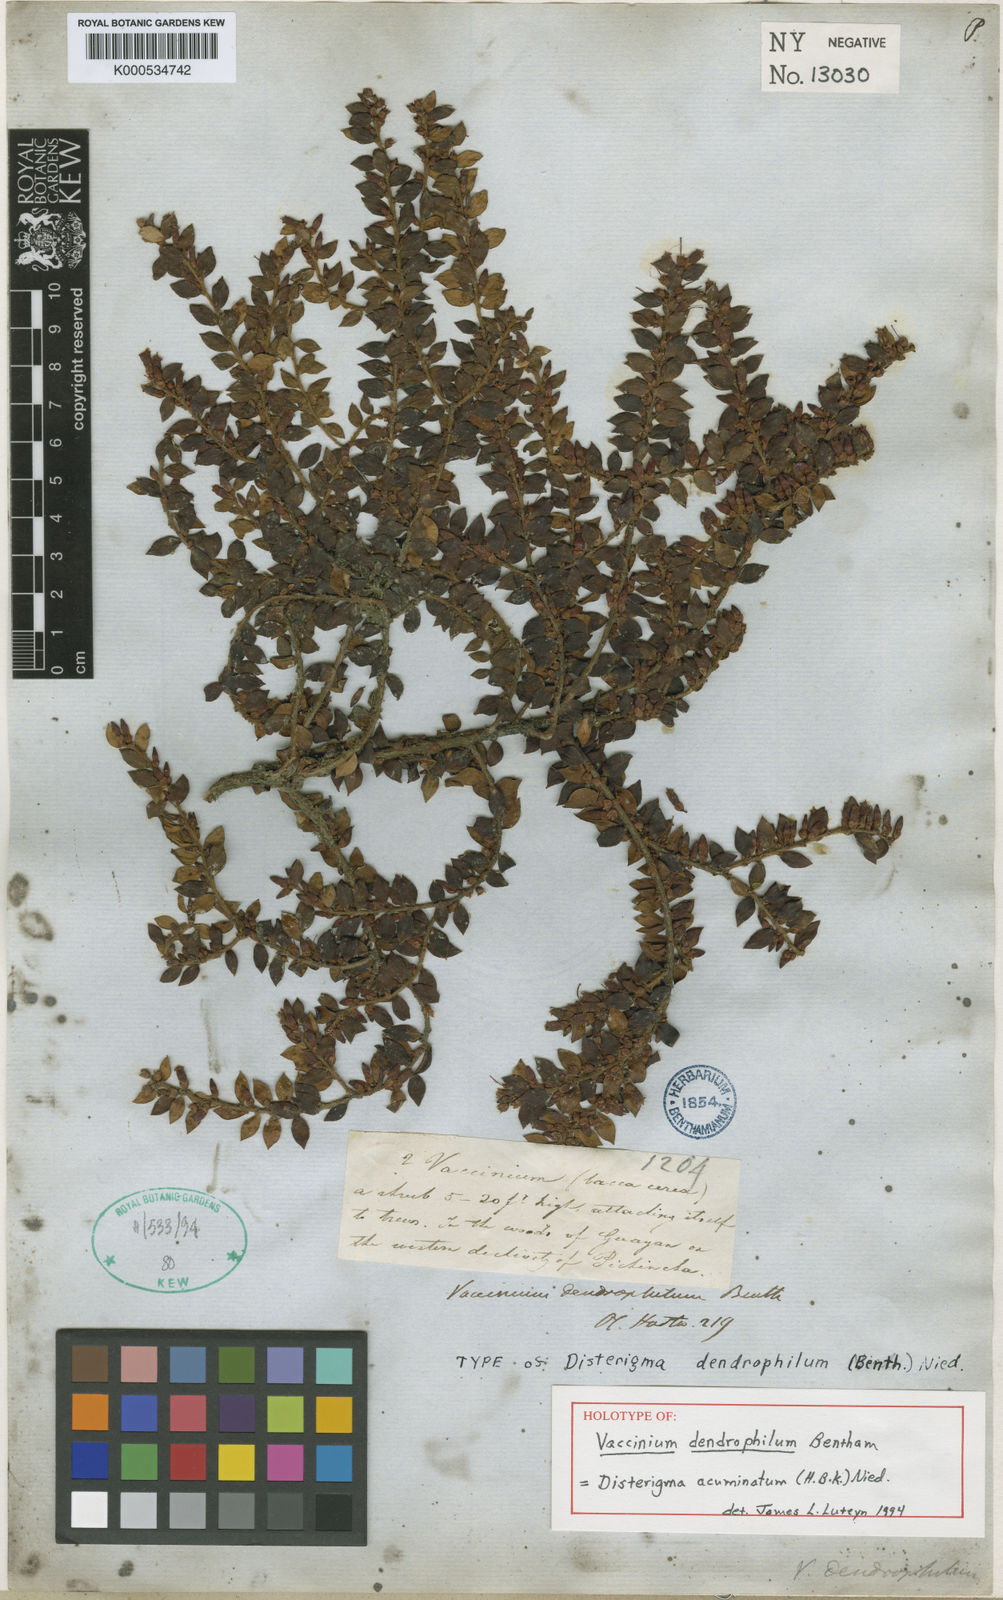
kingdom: Plantae
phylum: Tracheophyta
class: Magnoliopsida
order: Ericales
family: Ericaceae
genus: Disterigma
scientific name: Disterigma acuminatum
